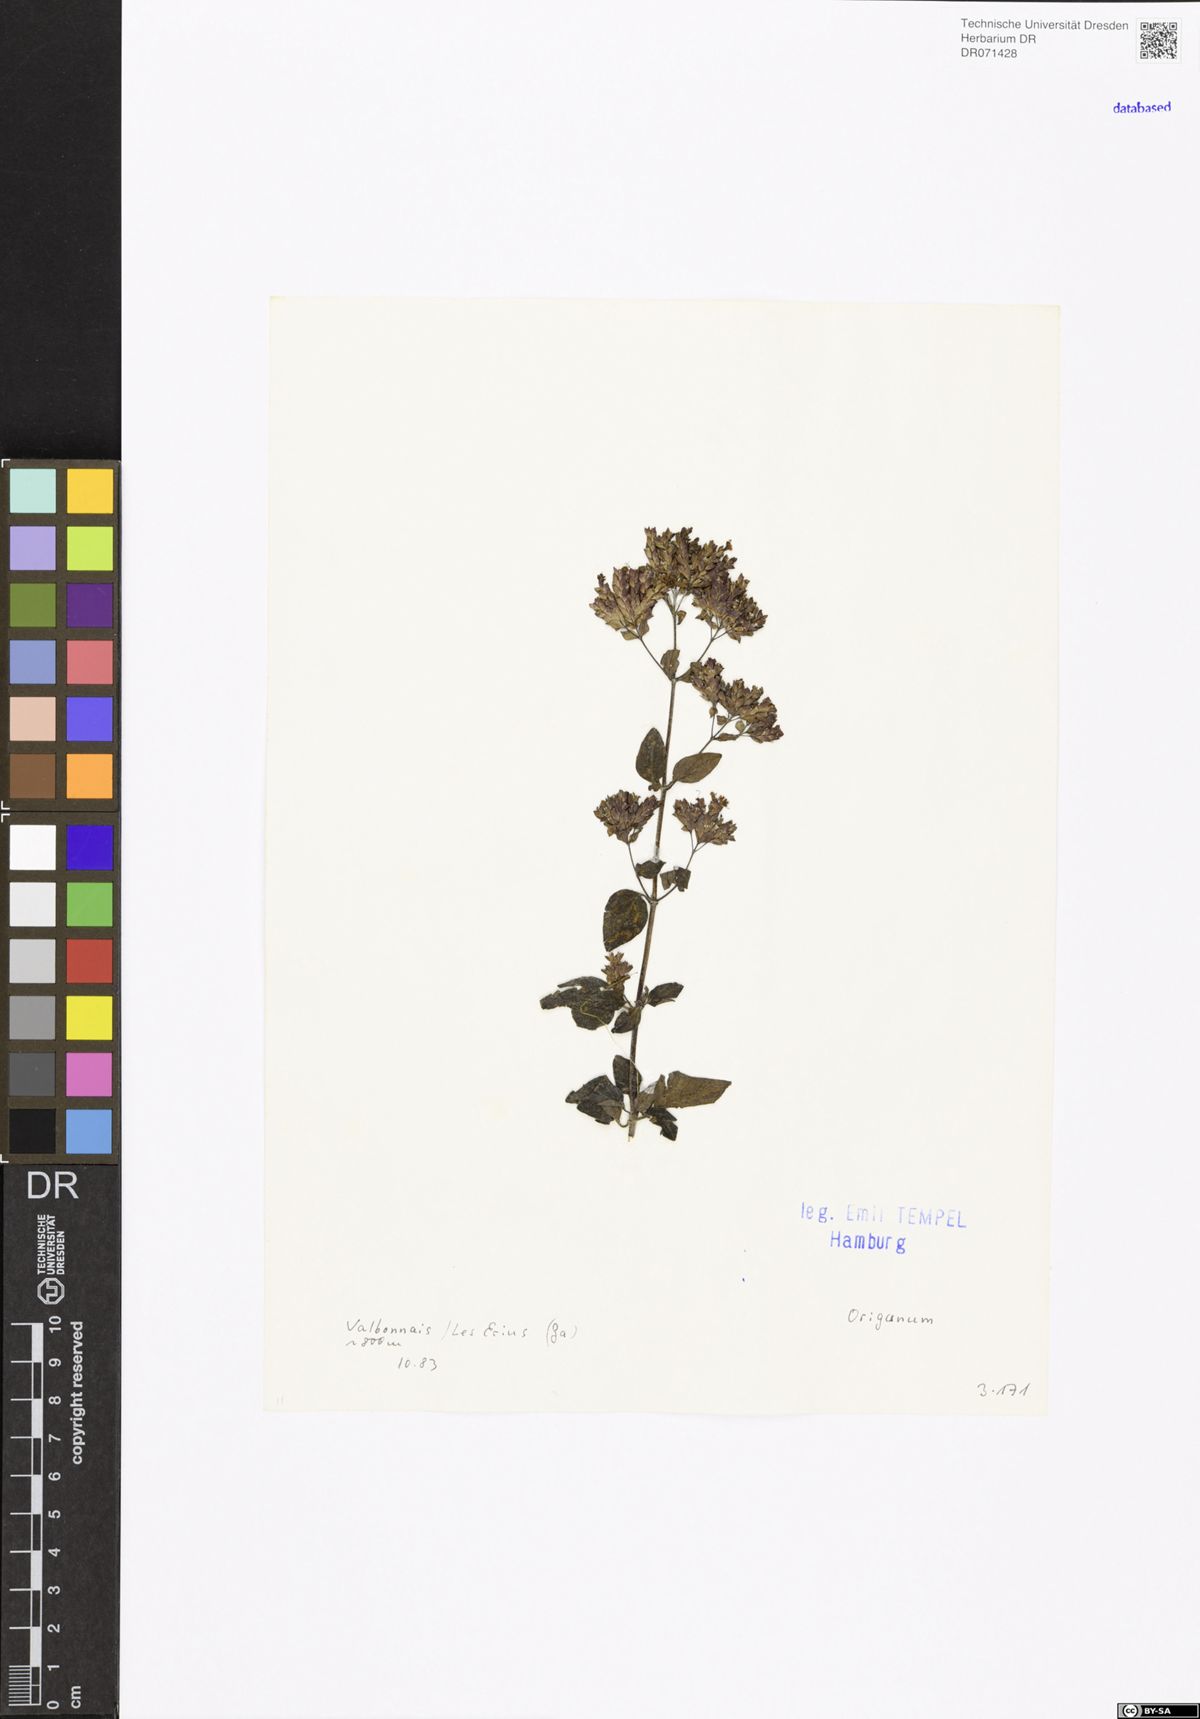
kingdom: Plantae
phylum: Tracheophyta
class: Magnoliopsida
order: Lamiales
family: Lamiaceae
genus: Origanum
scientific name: Origanum
